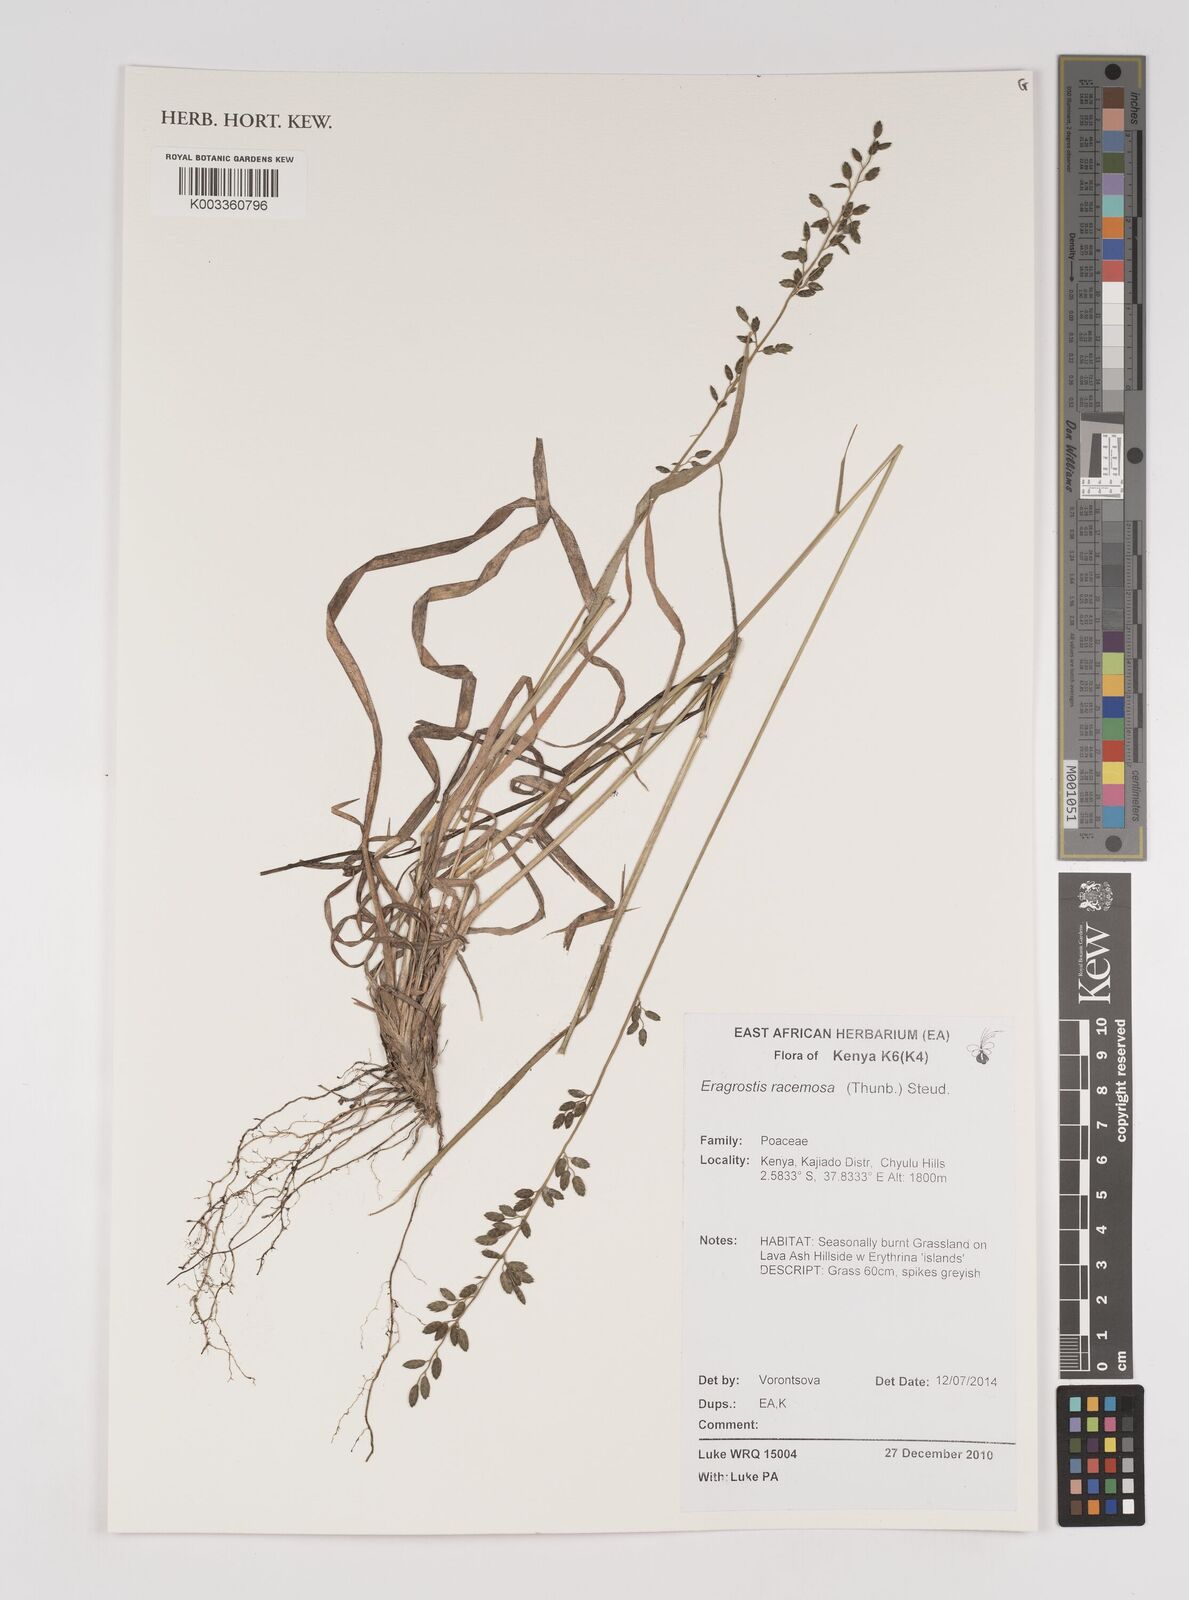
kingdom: Plantae
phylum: Tracheophyta
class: Liliopsida
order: Poales
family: Poaceae
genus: Eragrostis
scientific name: Eragrostis racemosa
